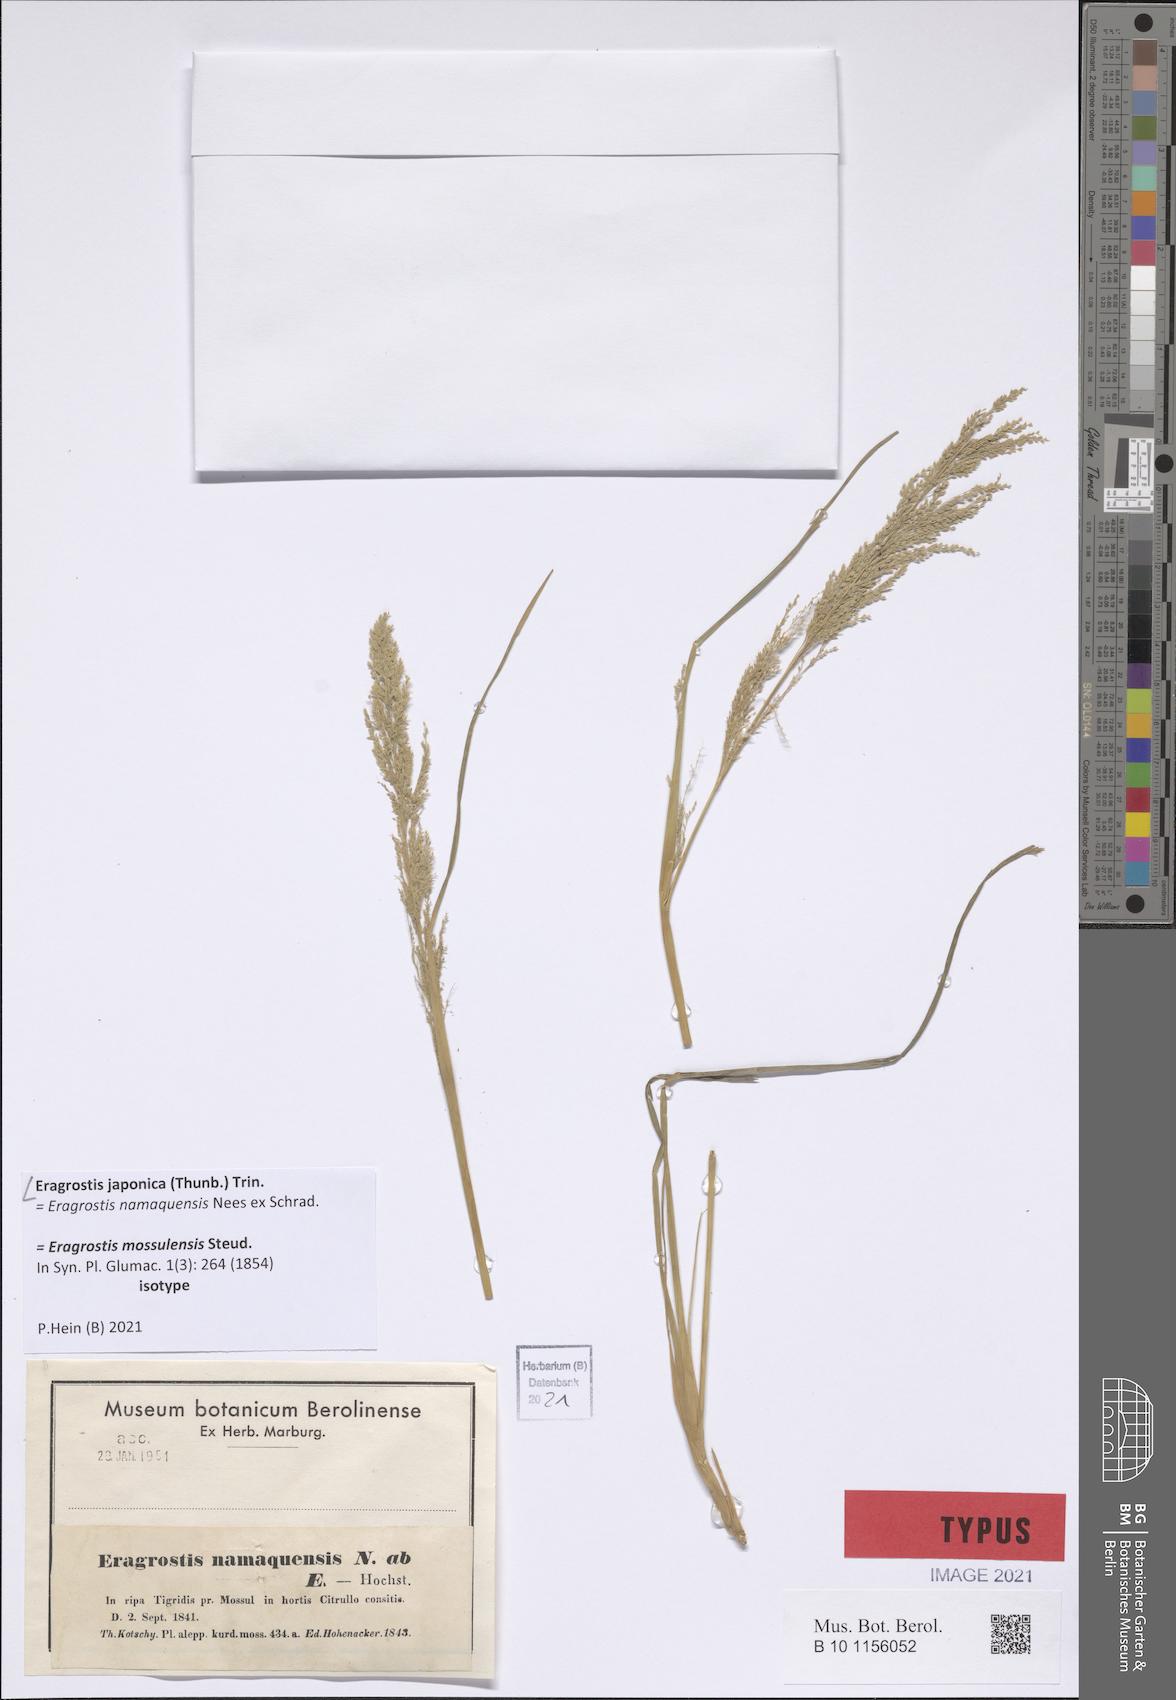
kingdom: Plantae
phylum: Tracheophyta
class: Liliopsida
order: Poales
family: Poaceae
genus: Eragrostis
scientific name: Eragrostis japonica
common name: Pond lovegrass
